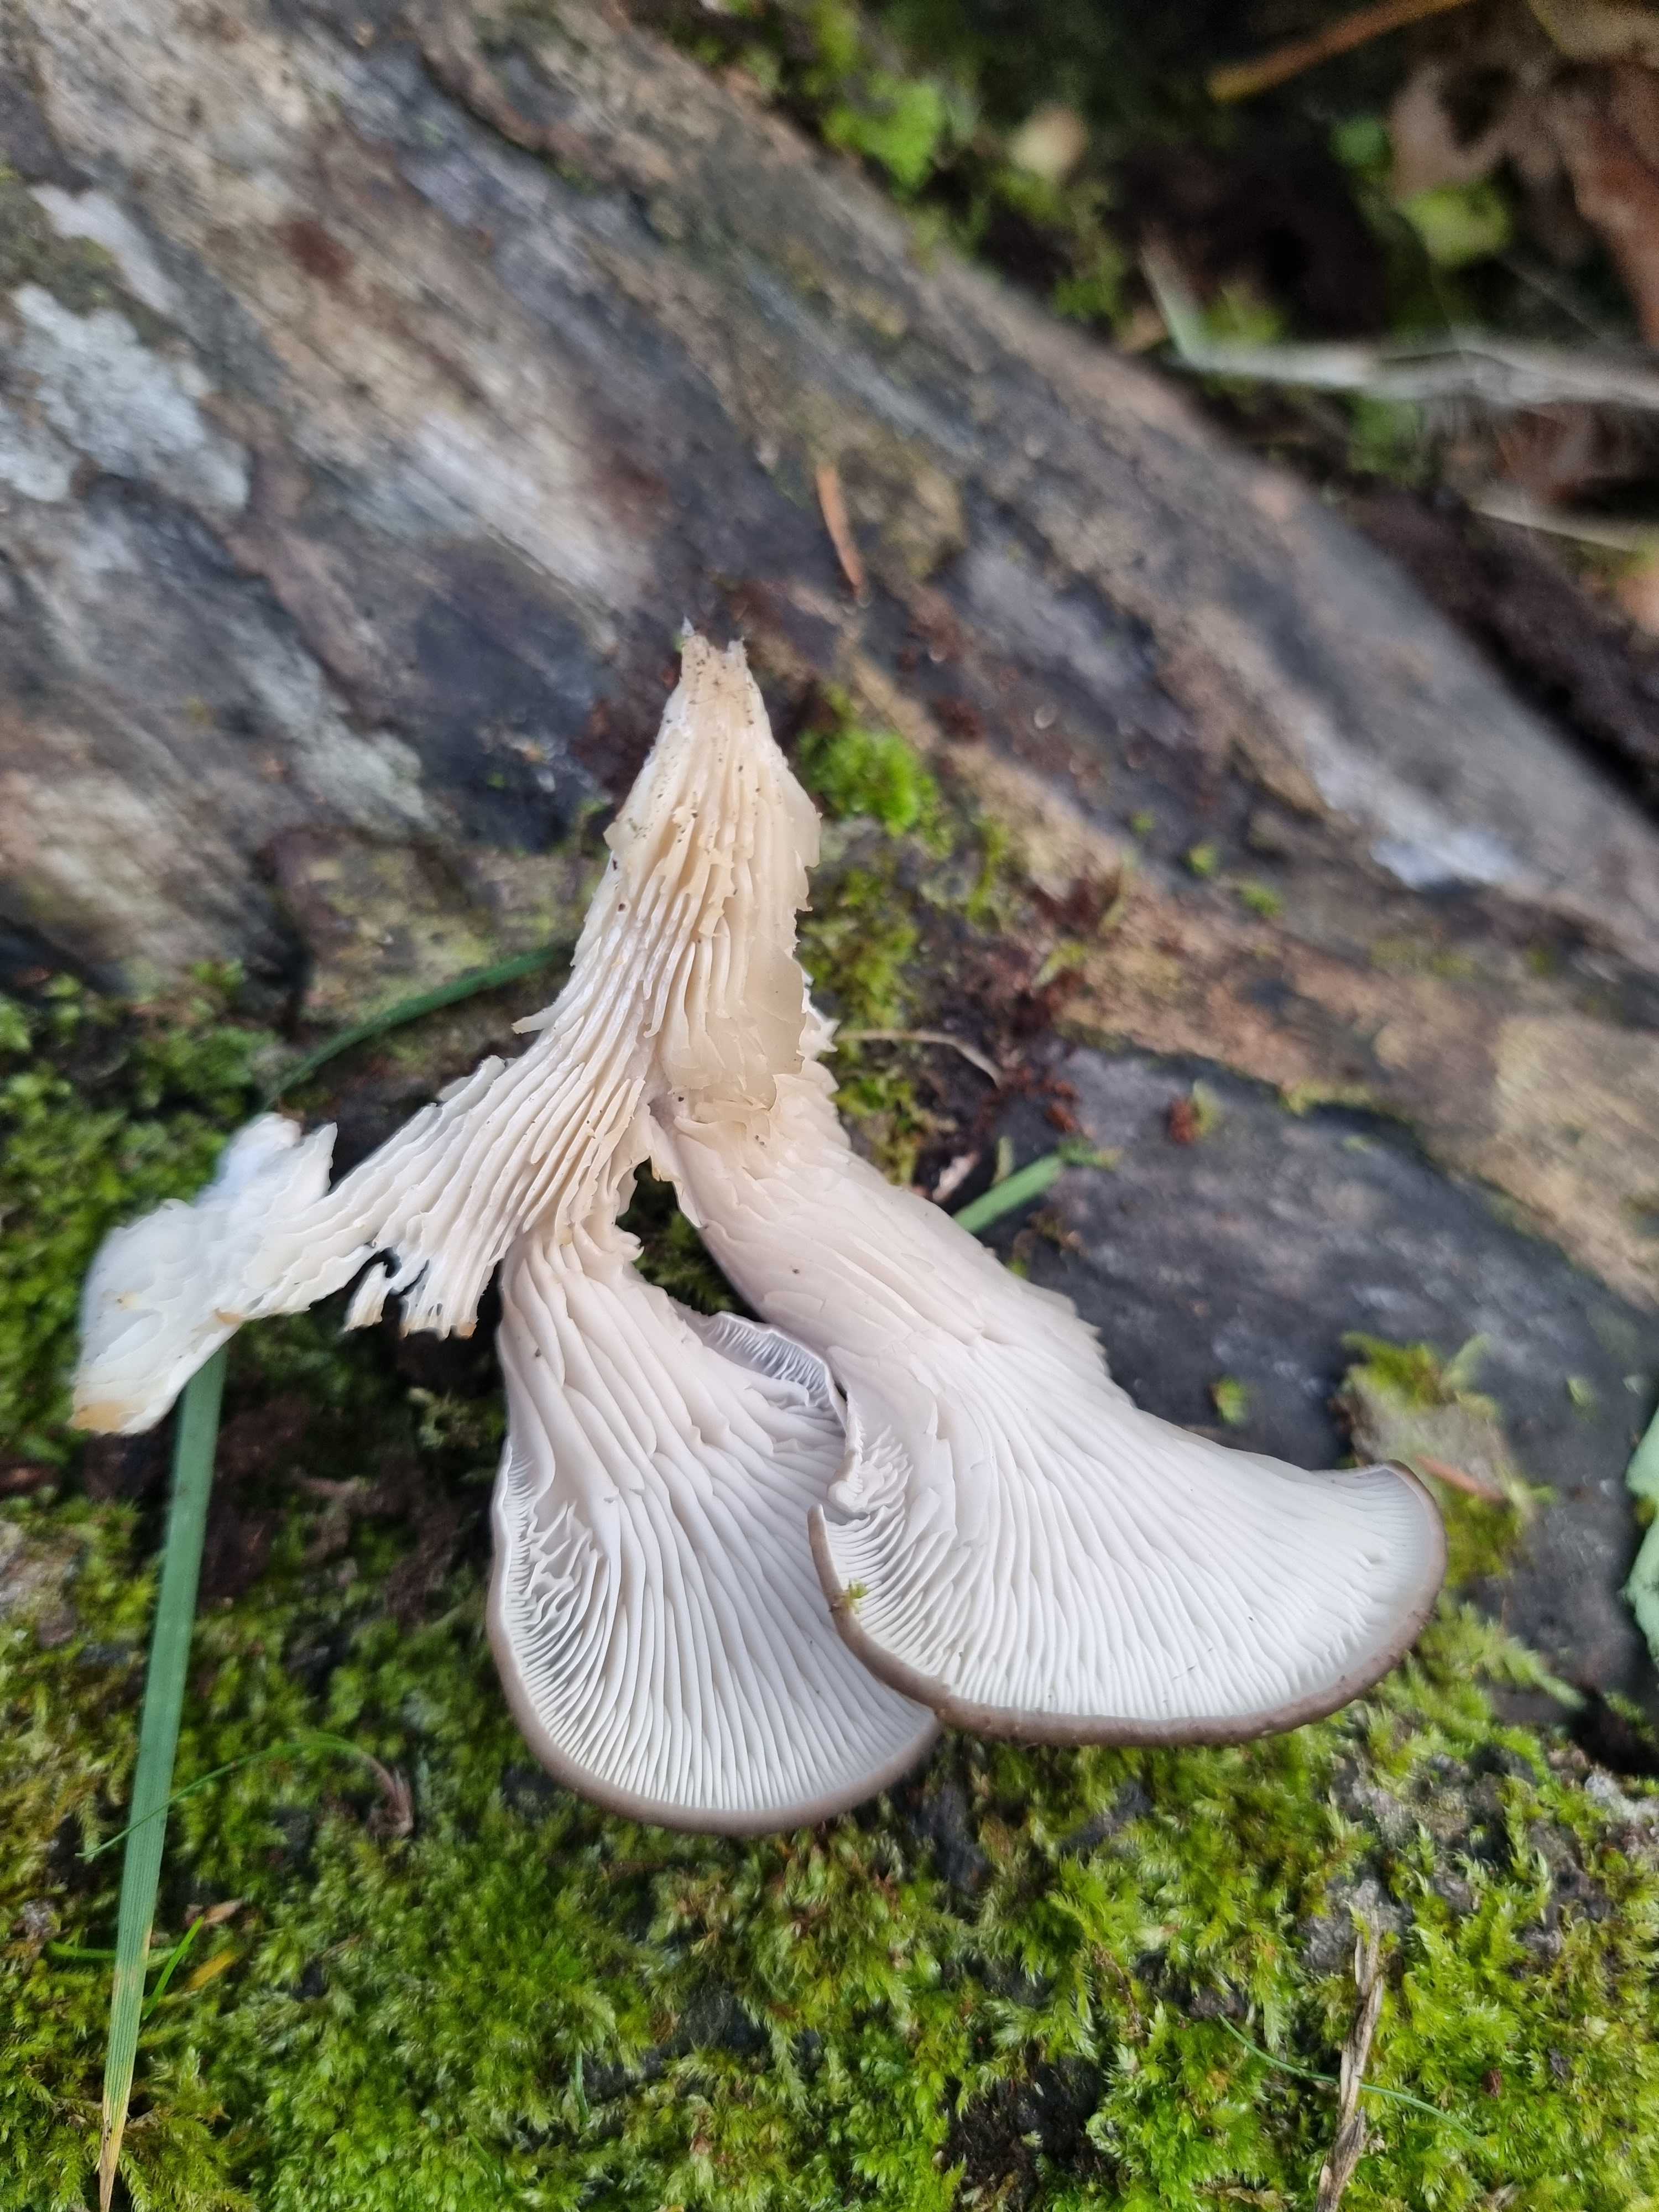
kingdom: Fungi
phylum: Basidiomycota
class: Agaricomycetes
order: Agaricales
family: Pleurotaceae
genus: Pleurotus
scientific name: Pleurotus ostreatus
